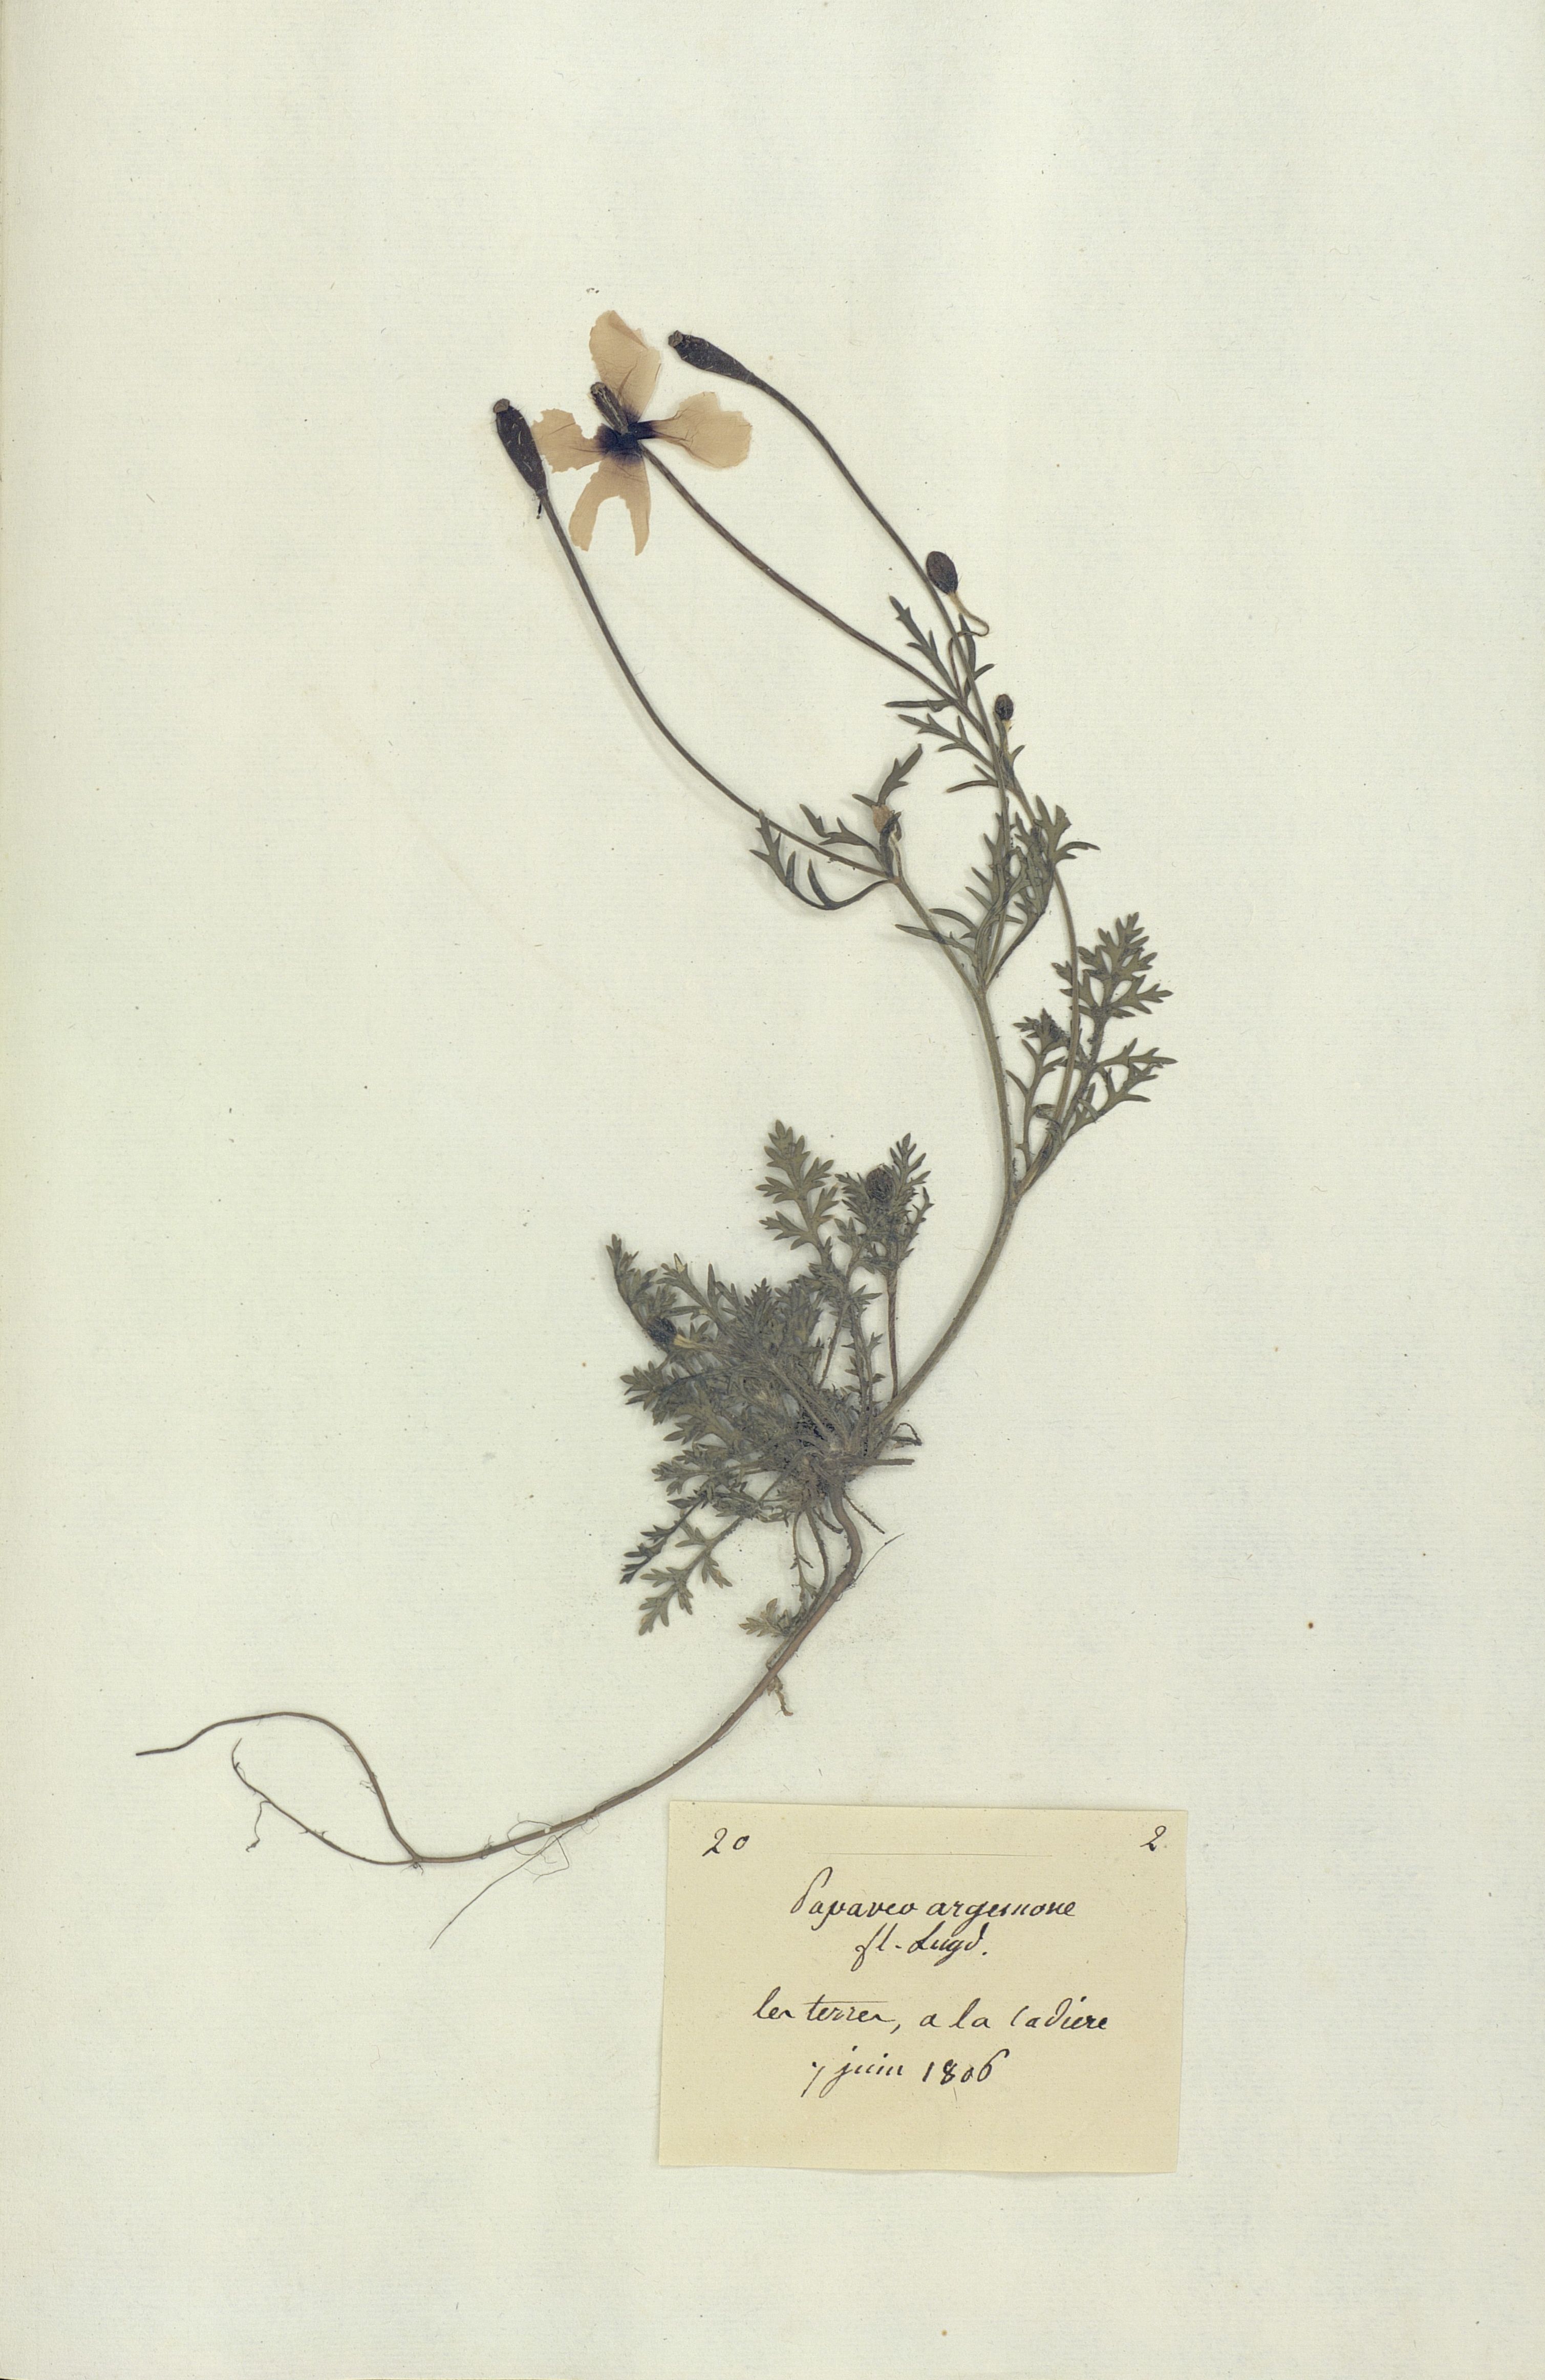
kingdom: Plantae
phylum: Tracheophyta
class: Magnoliopsida
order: Ranunculales
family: Papaveraceae
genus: Roemeria
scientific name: Roemeria argemone
